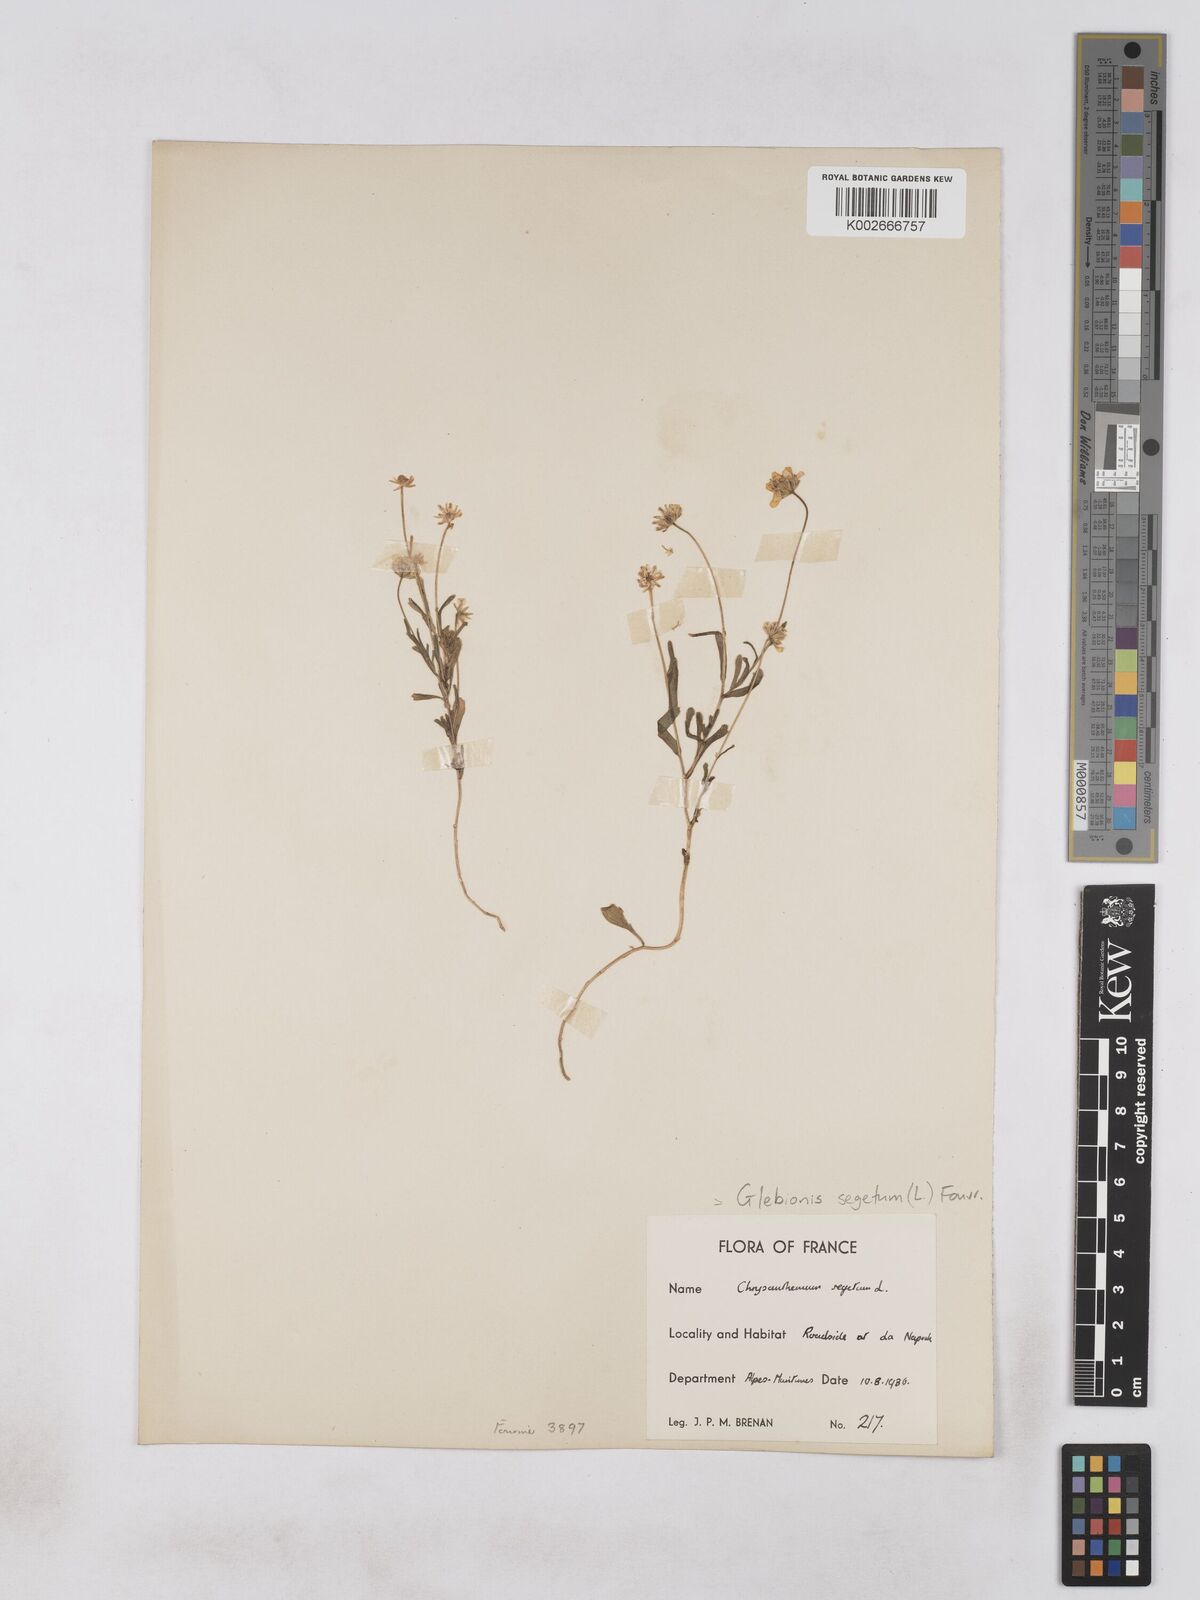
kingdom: Plantae
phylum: Tracheophyta
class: Magnoliopsida
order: Asterales
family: Asteraceae
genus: Glebionis
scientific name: Glebionis segetum
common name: Corndaisy
